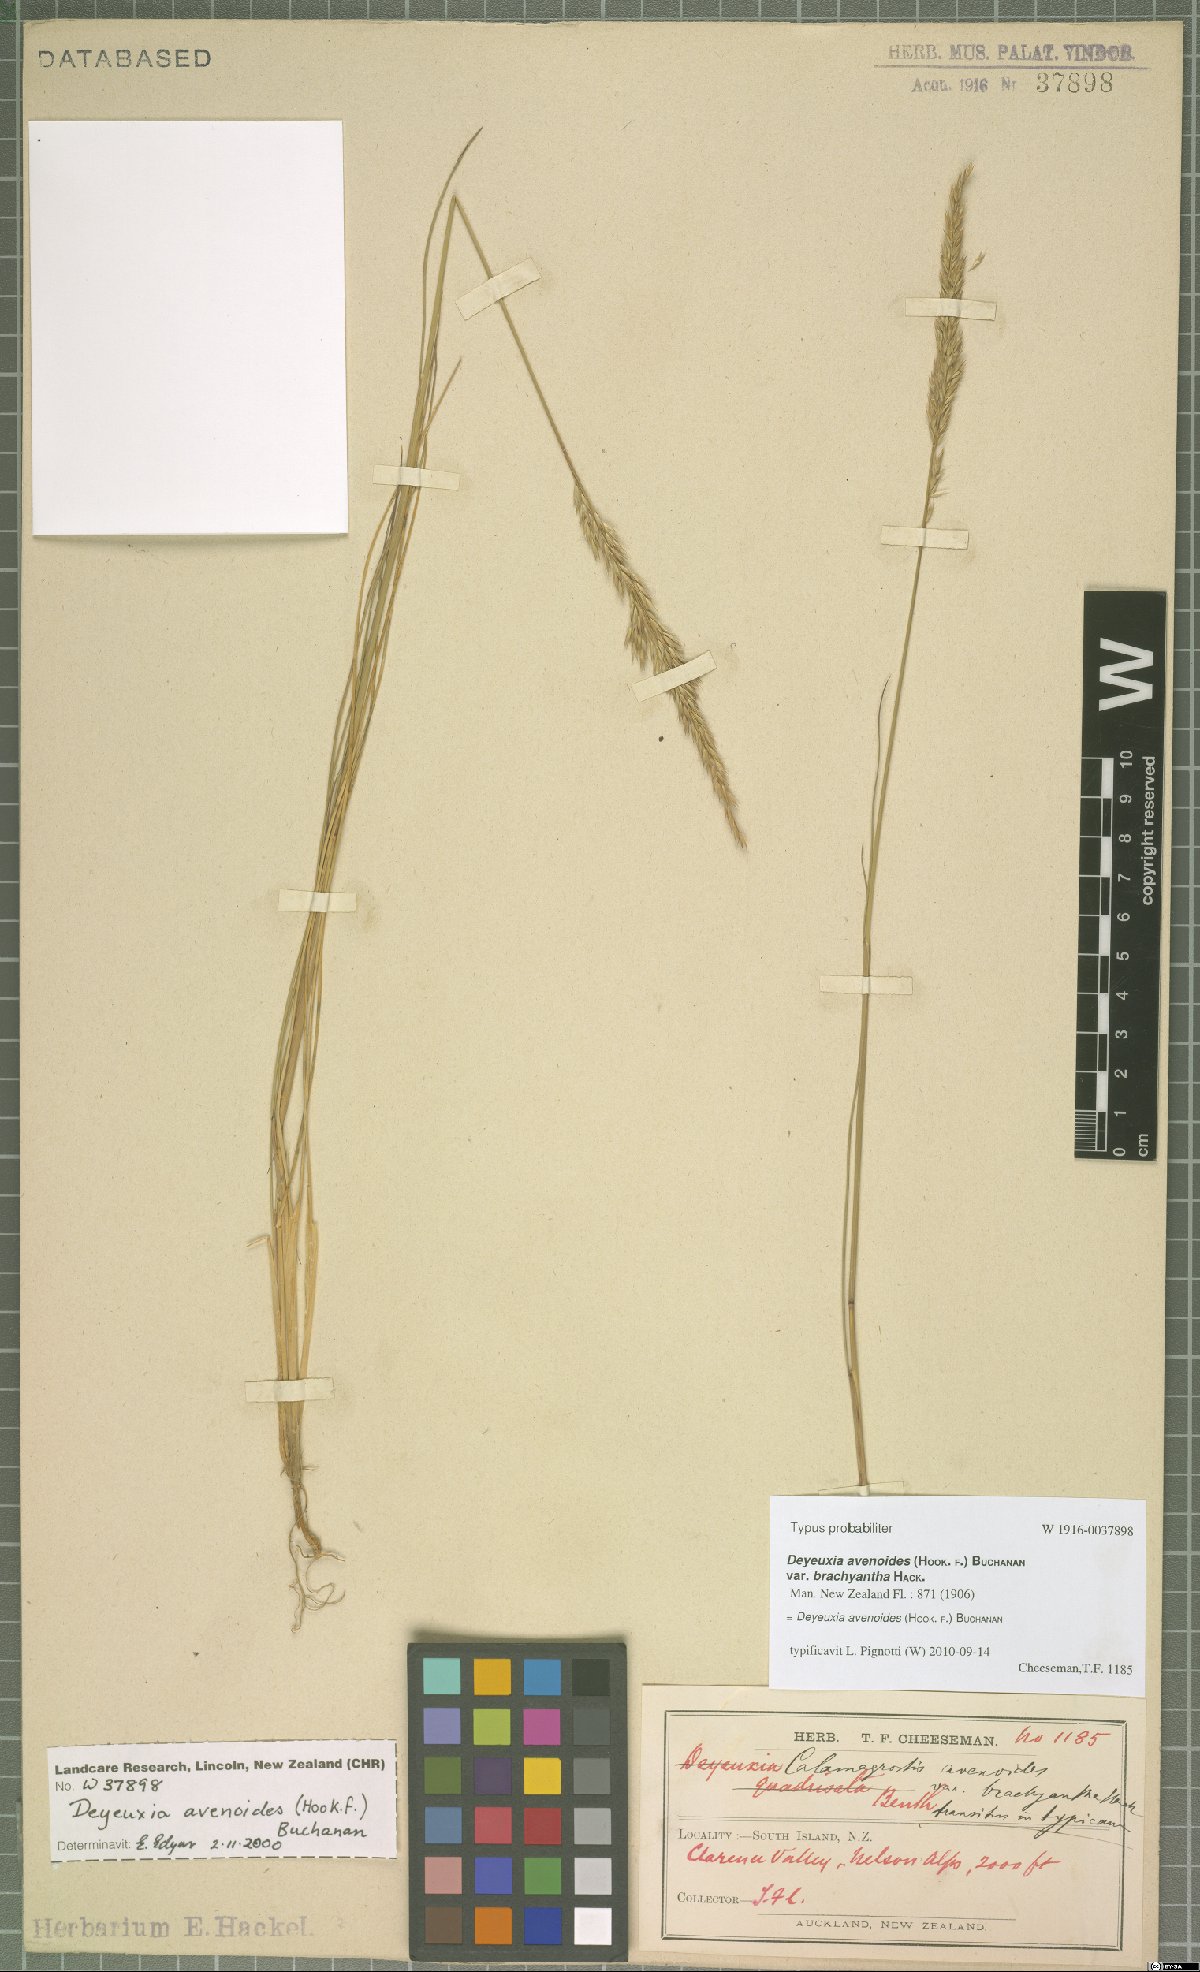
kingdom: Plantae
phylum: Tracheophyta
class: Liliopsida
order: Poales
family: Poaceae
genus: Calamagrostis
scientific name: Calamagrostis avenoides
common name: Mountain oat grass
